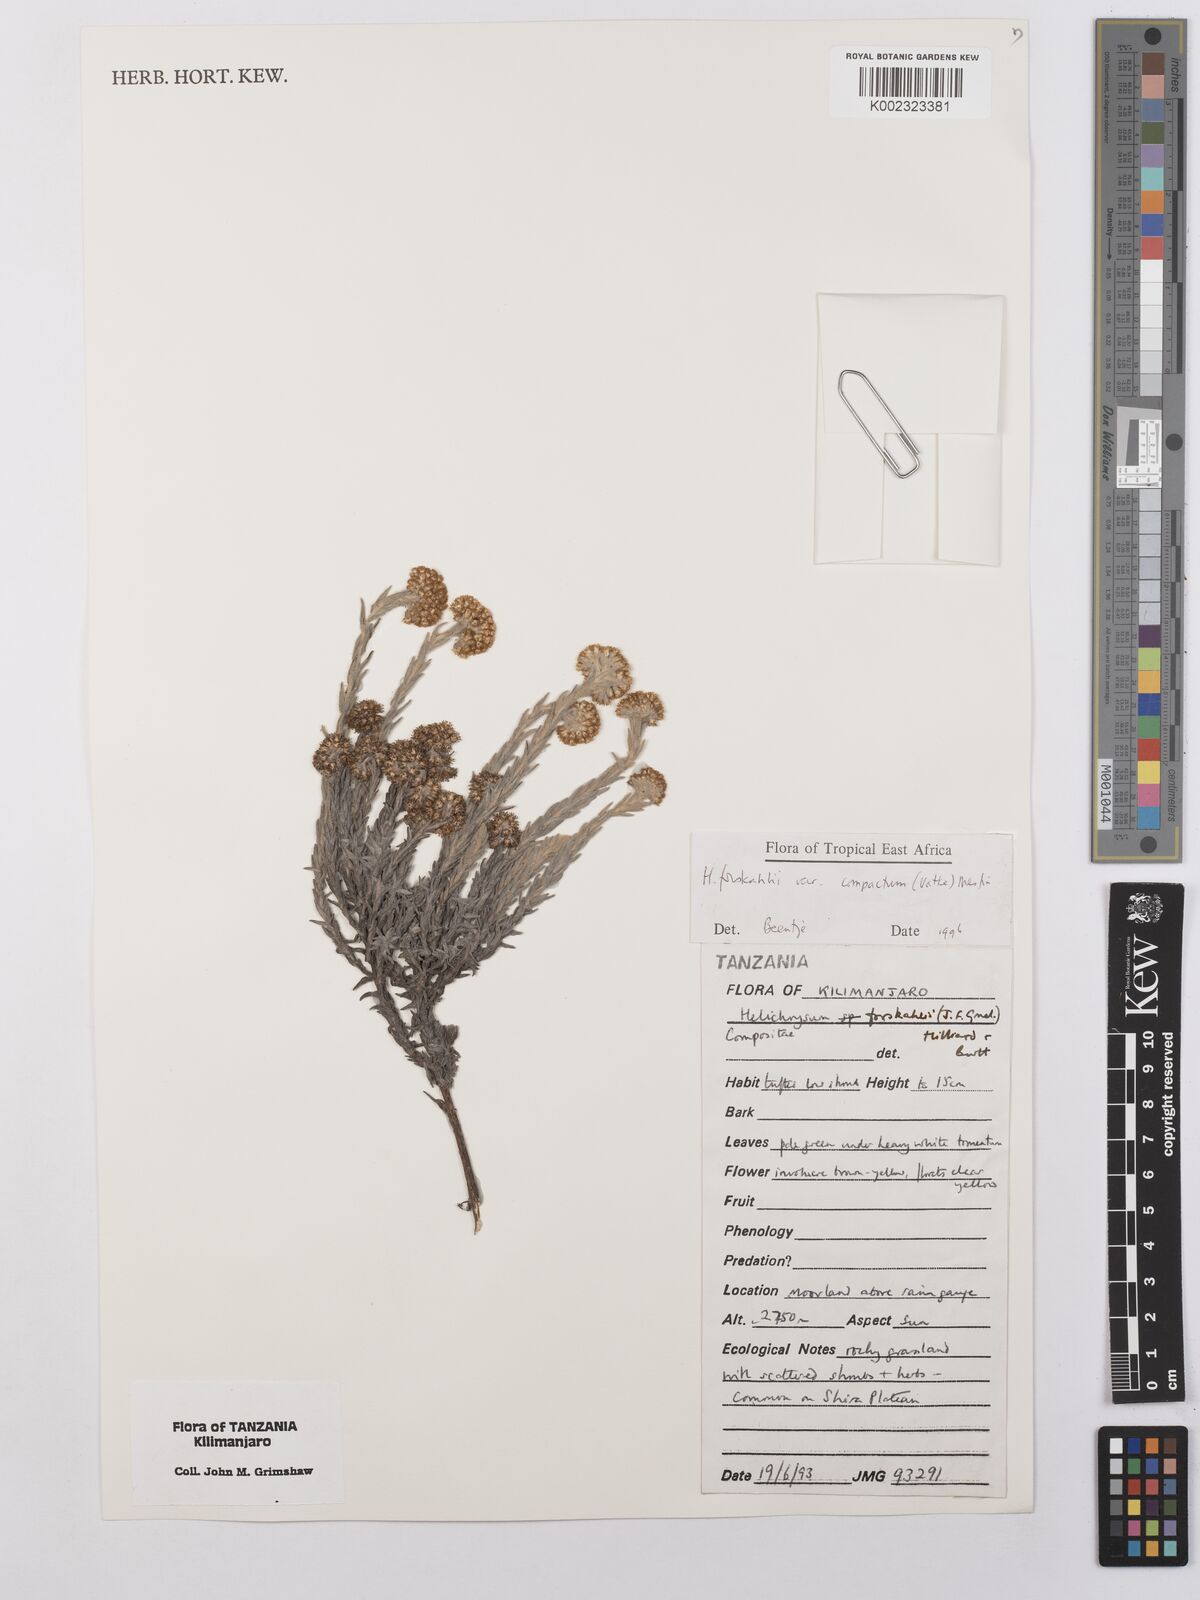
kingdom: Plantae
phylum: Tracheophyta
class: Magnoliopsida
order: Asterales
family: Asteraceae
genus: Helichrysum
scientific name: Helichrysum forskahlii
